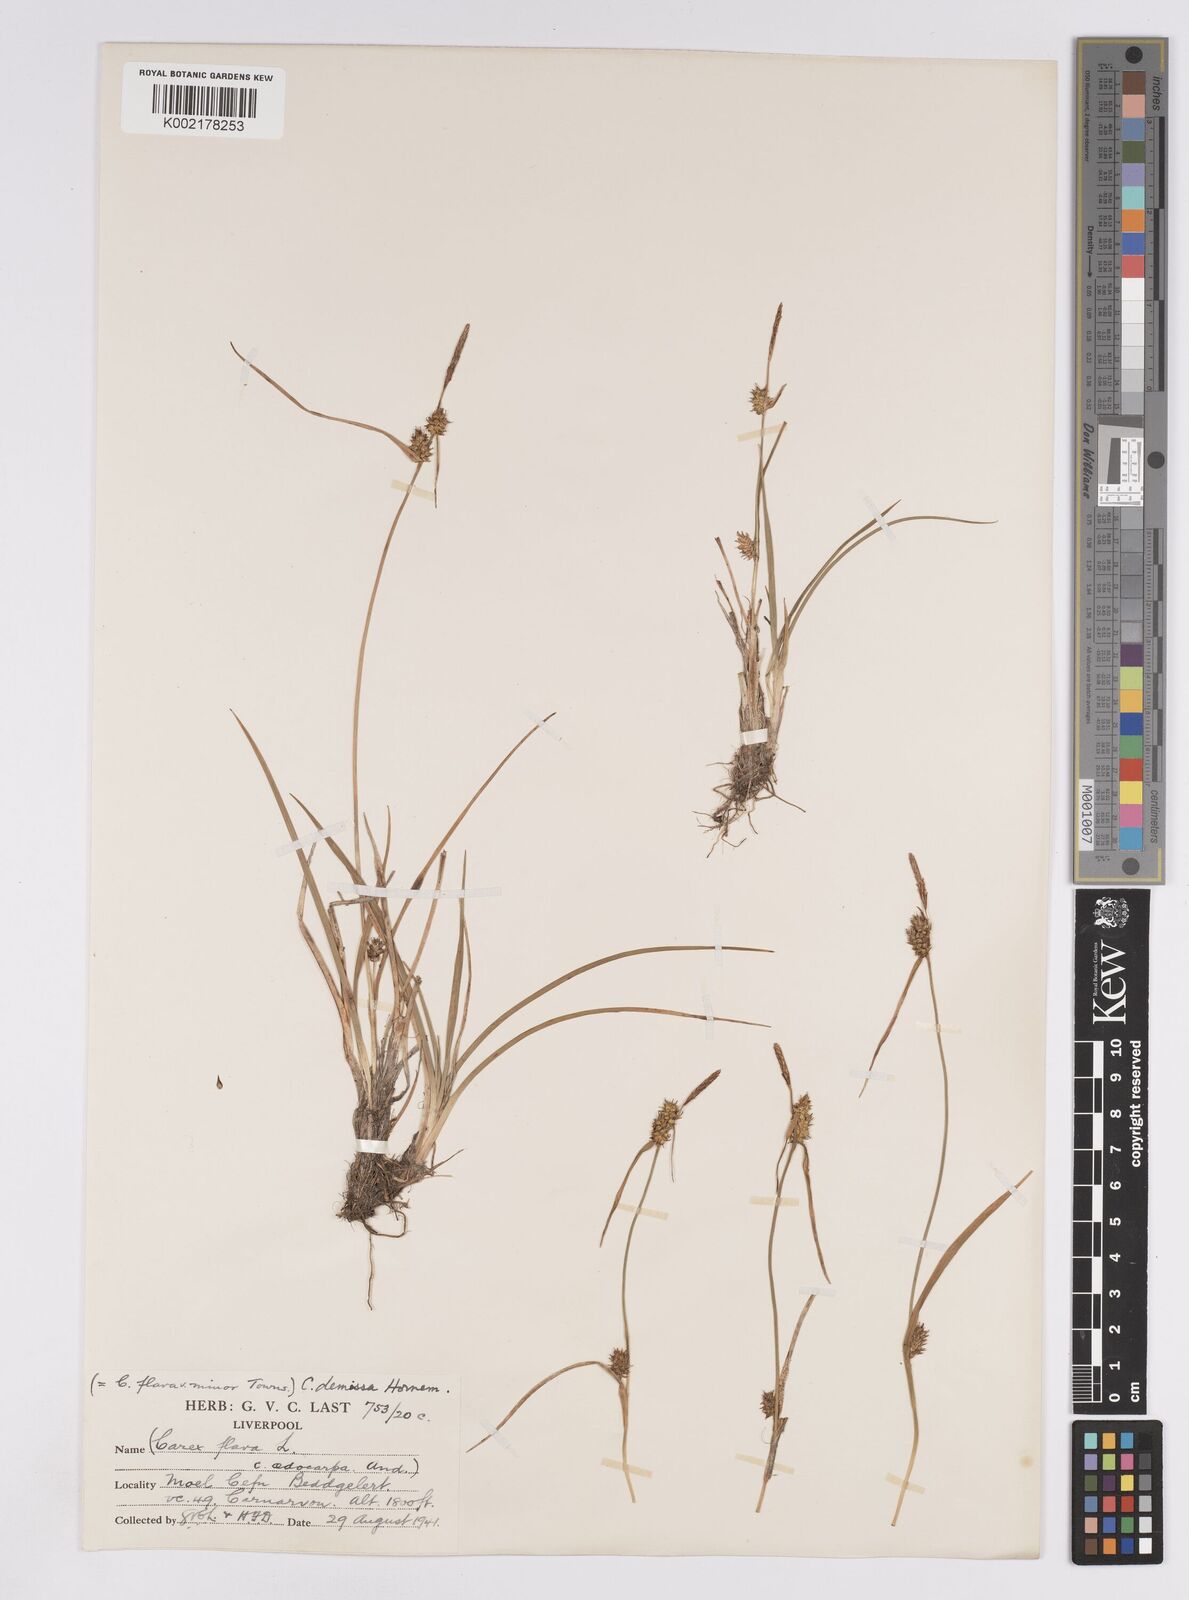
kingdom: Plantae
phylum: Tracheophyta
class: Liliopsida
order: Poales
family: Cyperaceae
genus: Carex
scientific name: Carex demissa
